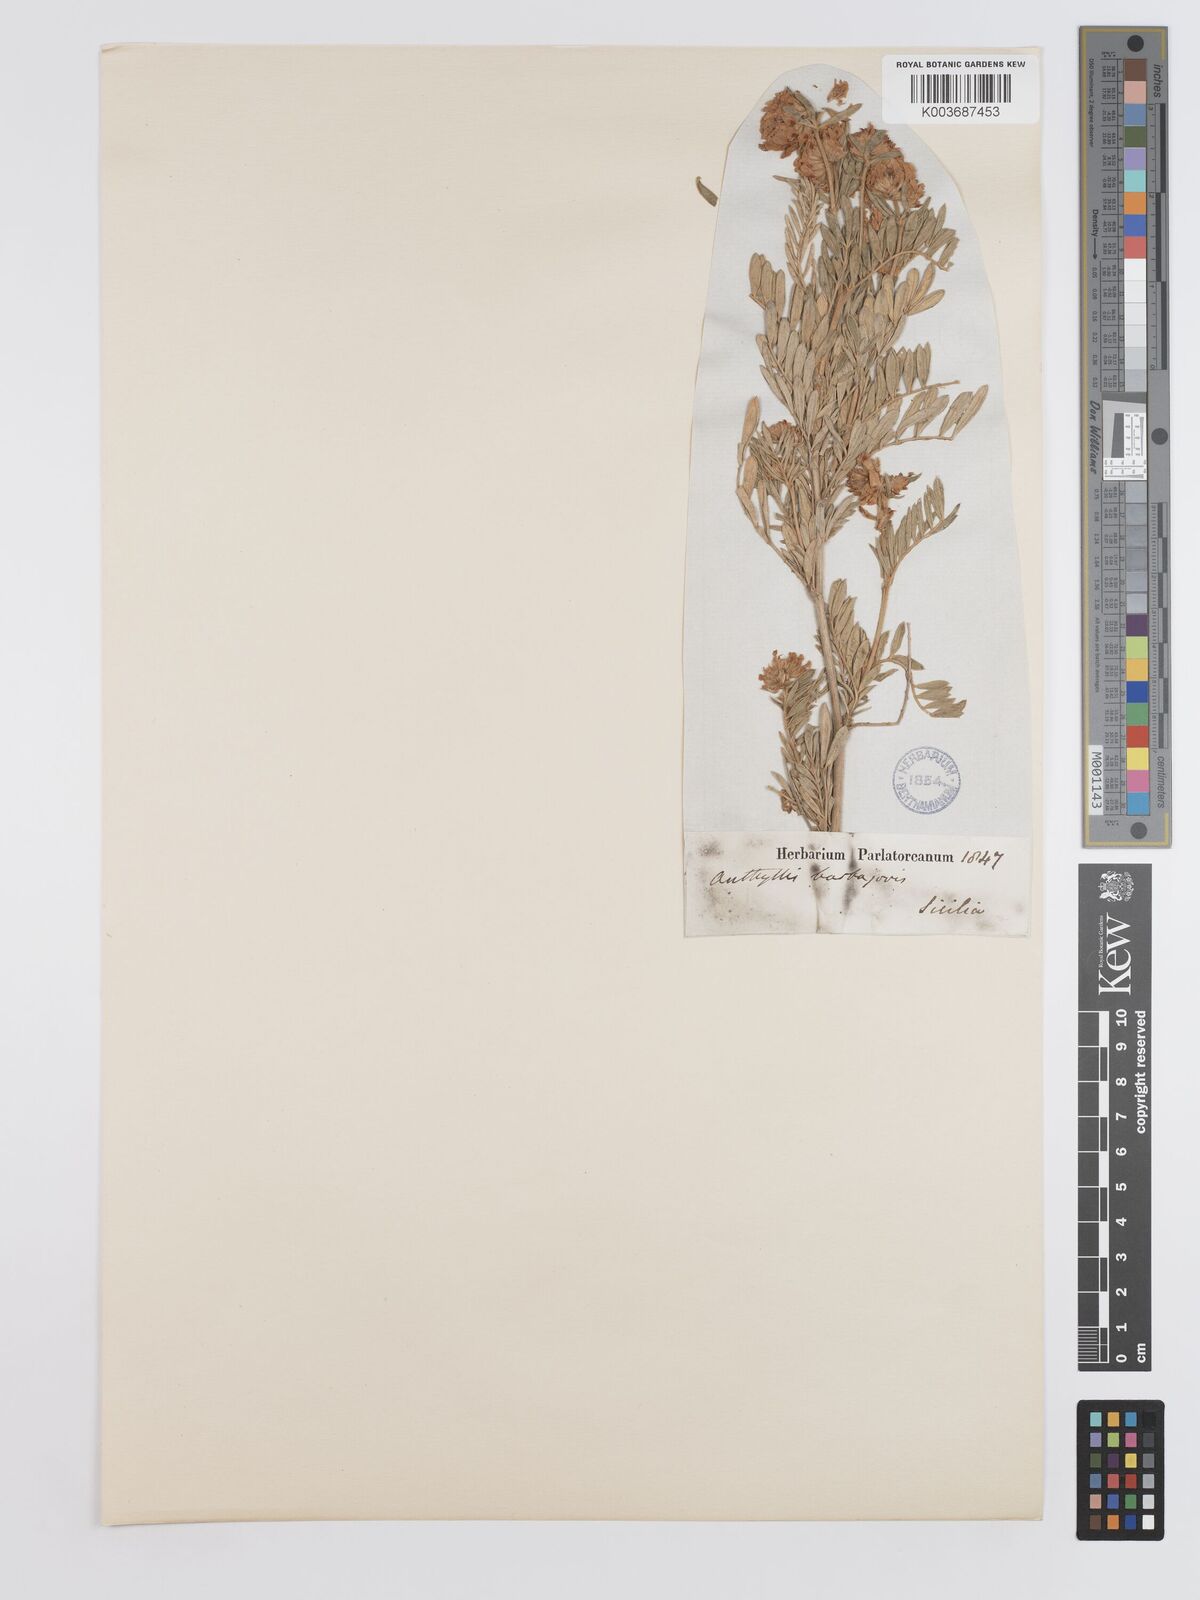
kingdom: Plantae
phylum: Tracheophyta
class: Magnoliopsida
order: Fabales
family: Fabaceae
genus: Anthyllis
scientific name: Anthyllis barba-jovis
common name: Jupiter's-beard
